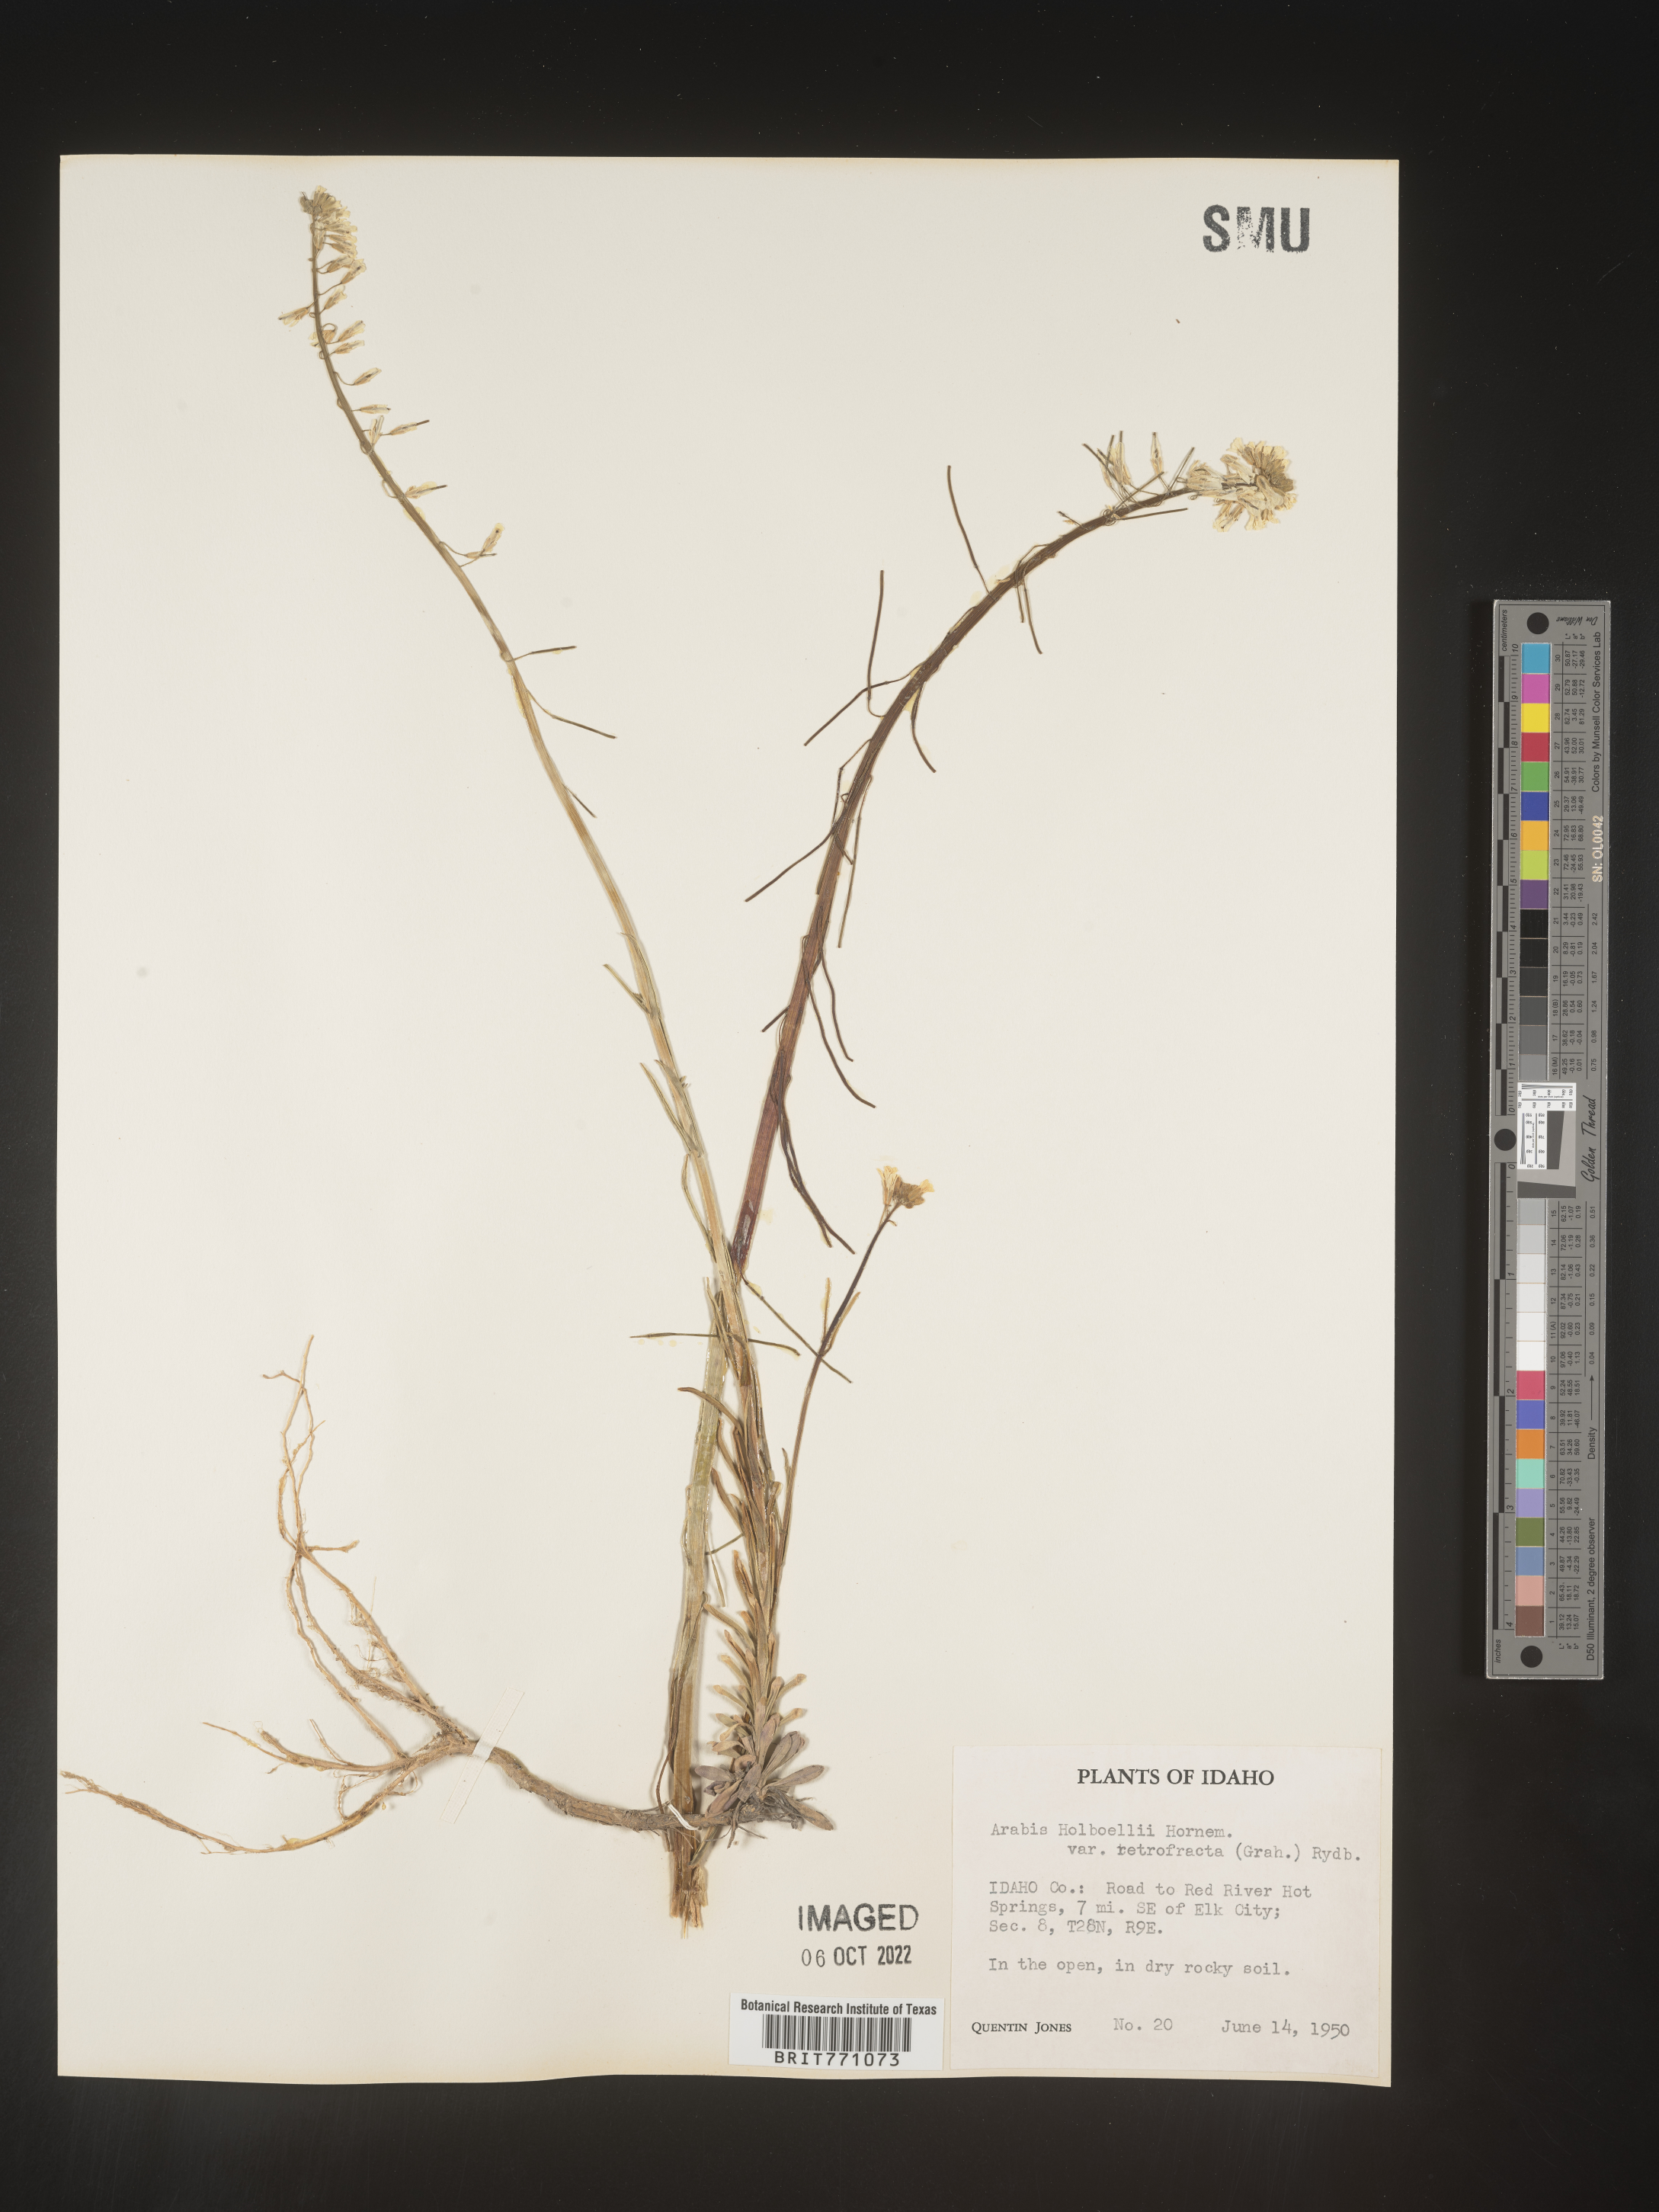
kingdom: Plantae
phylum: Tracheophyta
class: Magnoliopsida
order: Brassicales
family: Brassicaceae
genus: Boechera
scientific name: Boechera holboellii
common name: Holboell's rockcress
